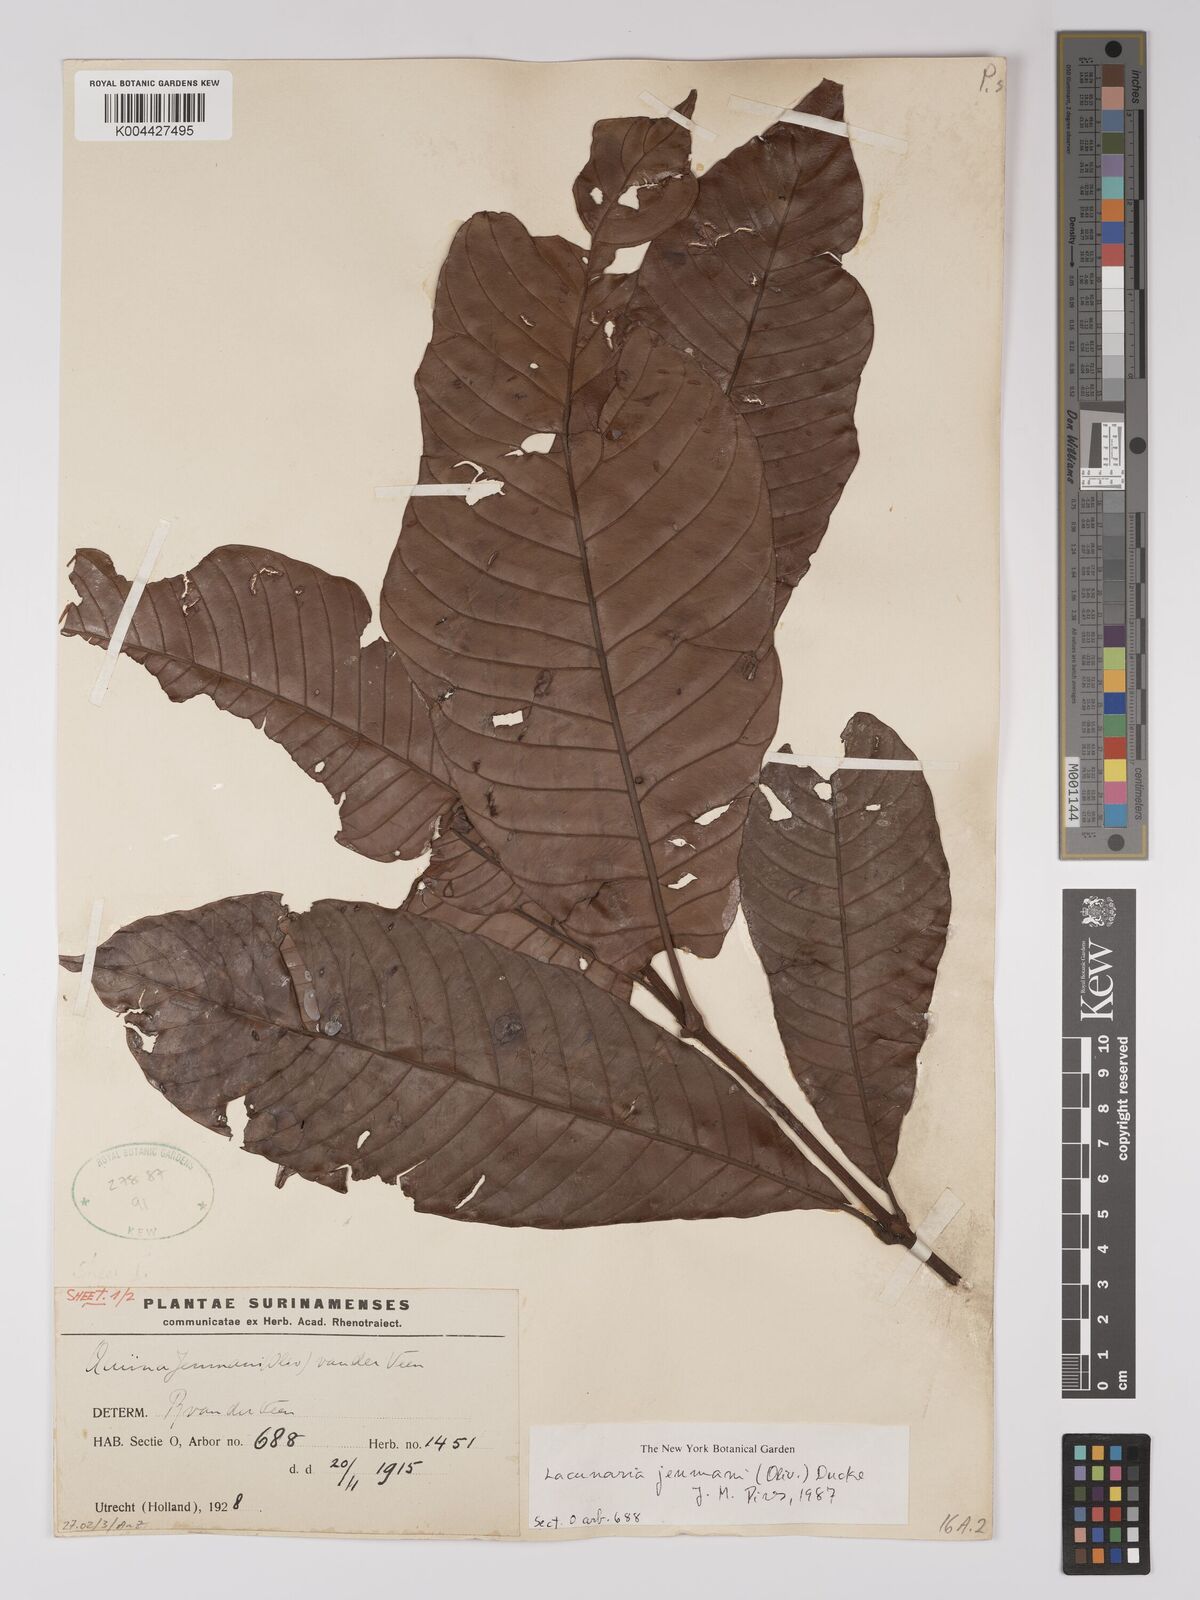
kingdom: Plantae
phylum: Tracheophyta
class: Magnoliopsida
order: Malpighiales
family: Quiinaceae
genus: Lacunaria
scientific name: Lacunaria jenmanii
